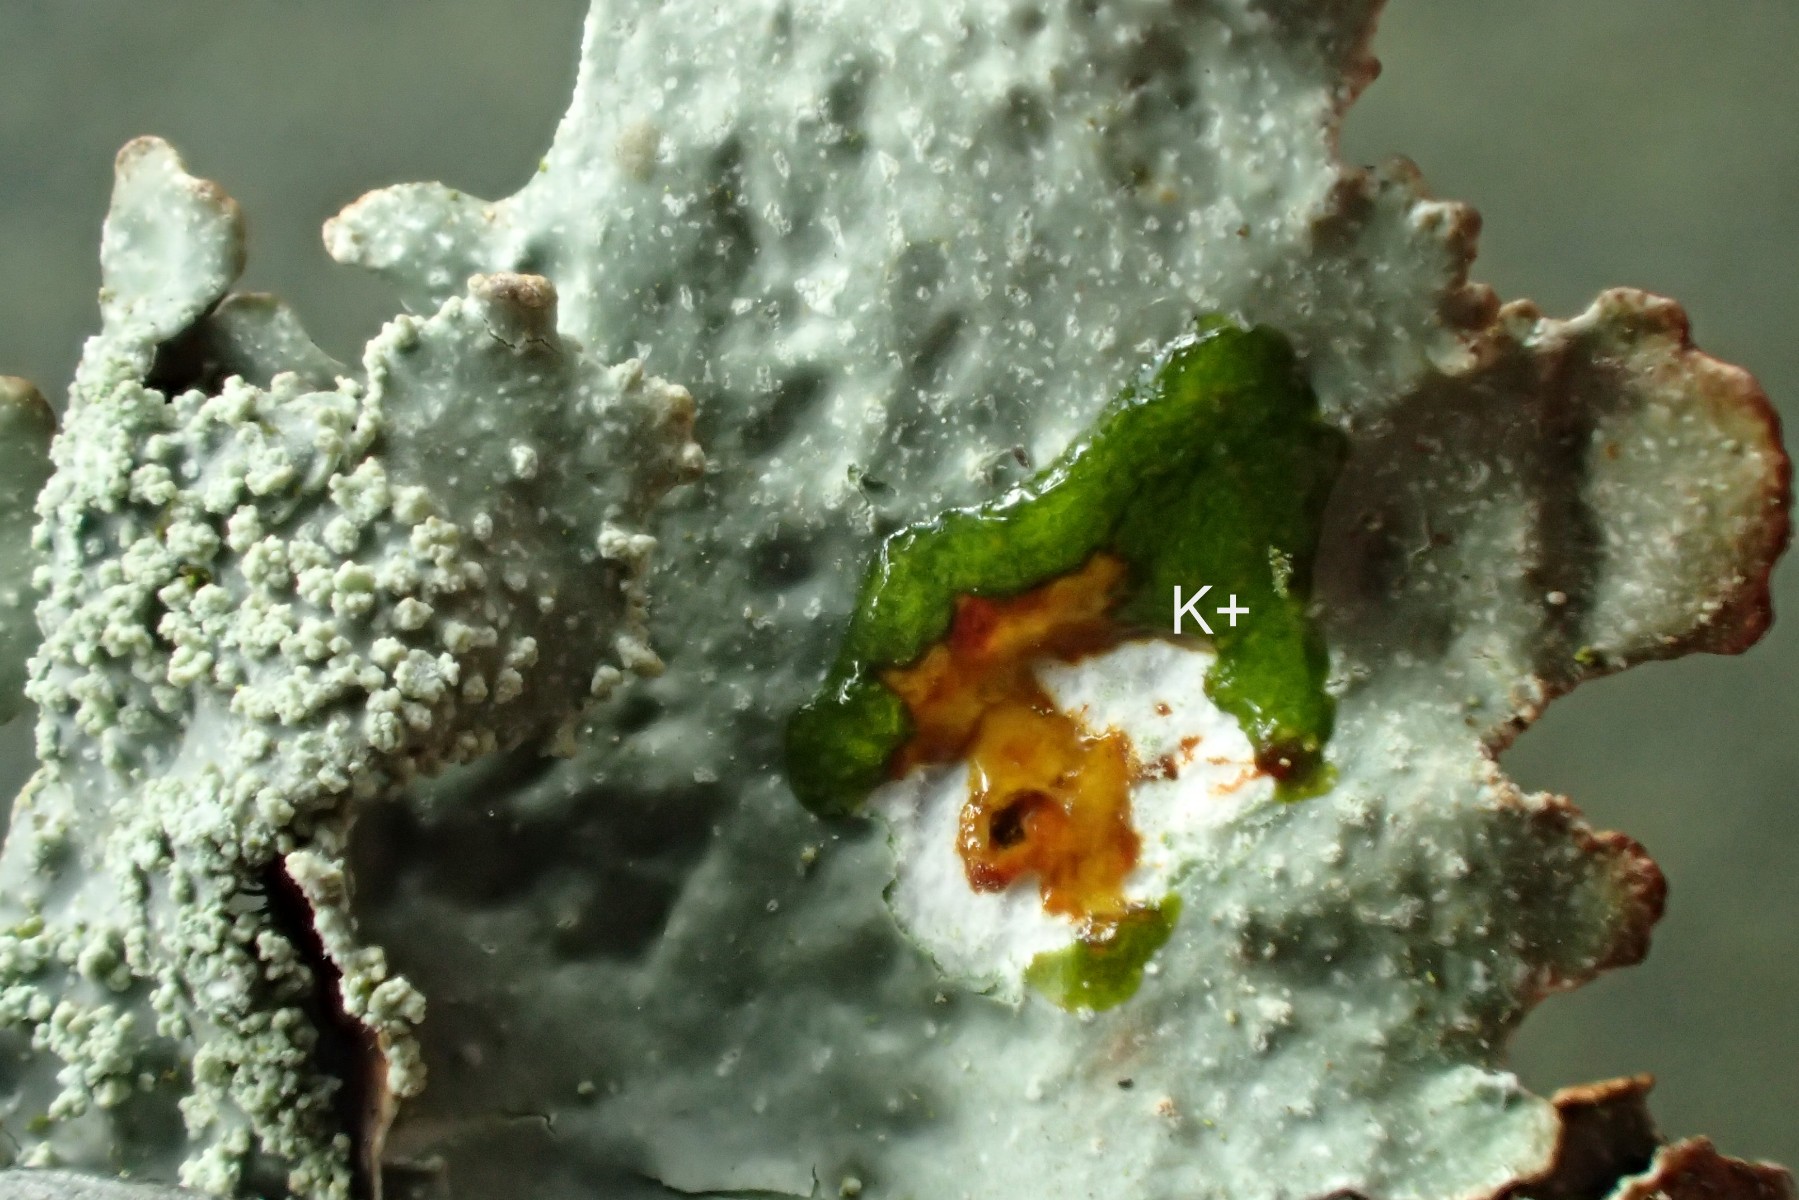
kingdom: Fungi
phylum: Ascomycota
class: Lecanoromycetes
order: Lecanorales
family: Parmeliaceae
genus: Parmelia
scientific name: Parmelia submontana
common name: langlobet skållav
